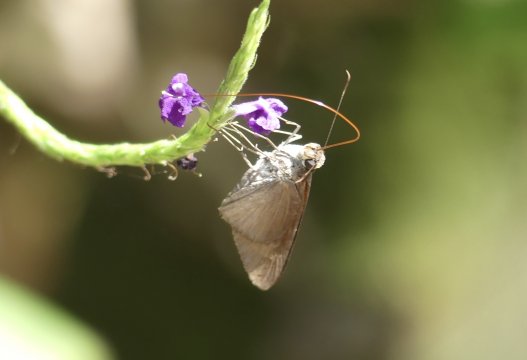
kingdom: Animalia
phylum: Arthropoda
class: Insecta
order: Lepidoptera
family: Hesperiidae
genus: Damas
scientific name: Damas clavus
